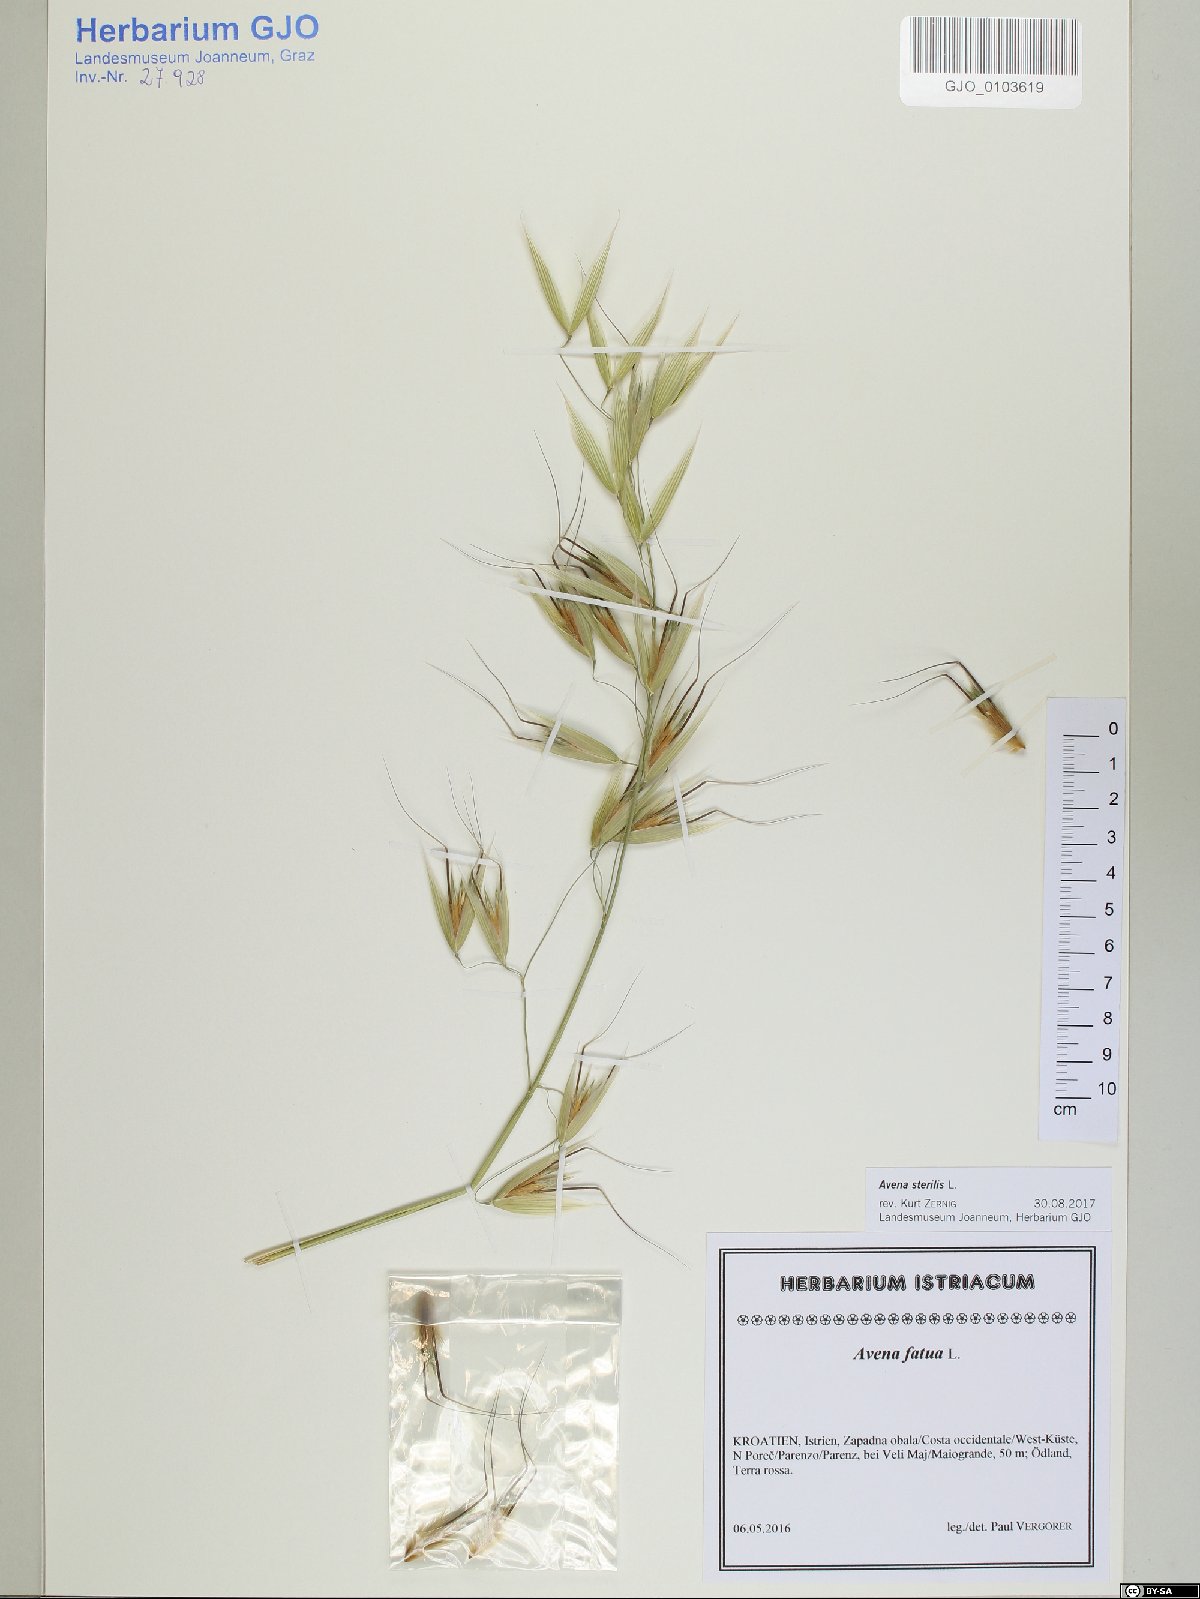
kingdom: Plantae
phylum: Tracheophyta
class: Liliopsida
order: Poales
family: Poaceae
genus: Avena
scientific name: Avena sterilis
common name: Animated oat
